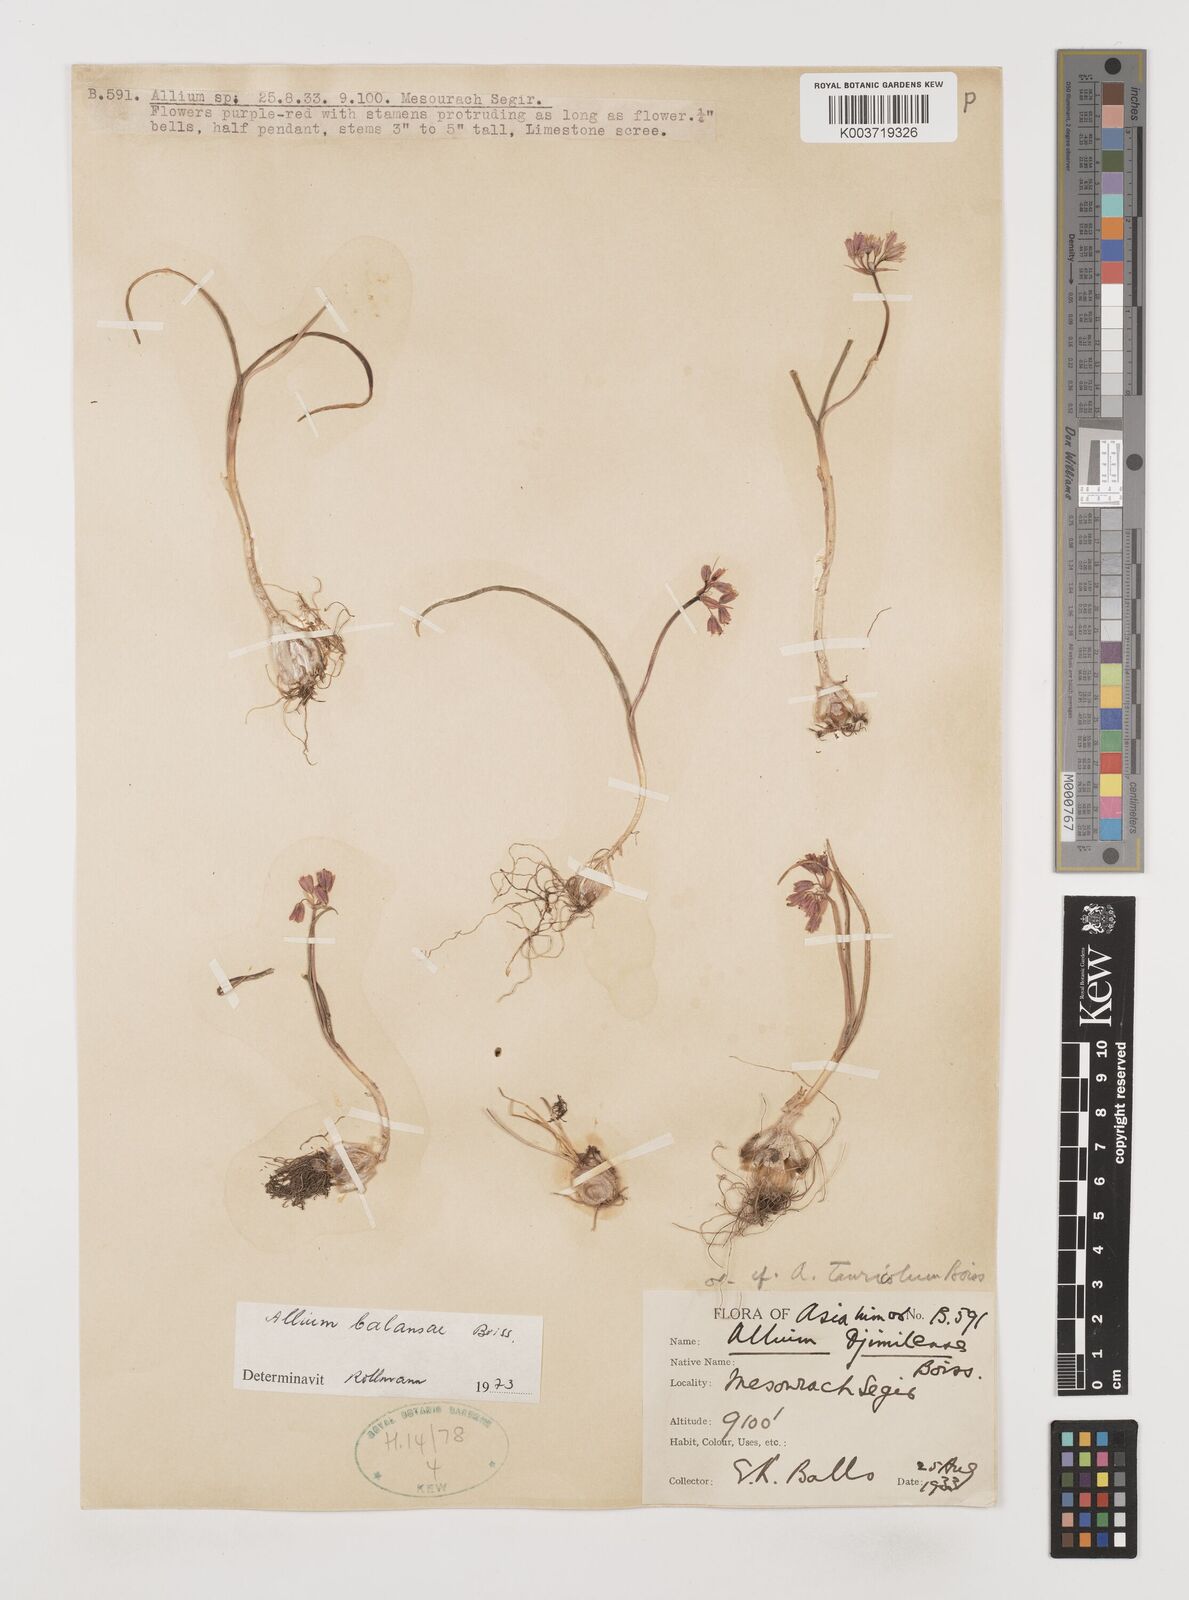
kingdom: Plantae
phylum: Tracheophyta
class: Liliopsida
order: Asparagales
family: Amaryllidaceae
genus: Allium
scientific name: Allium balansae
